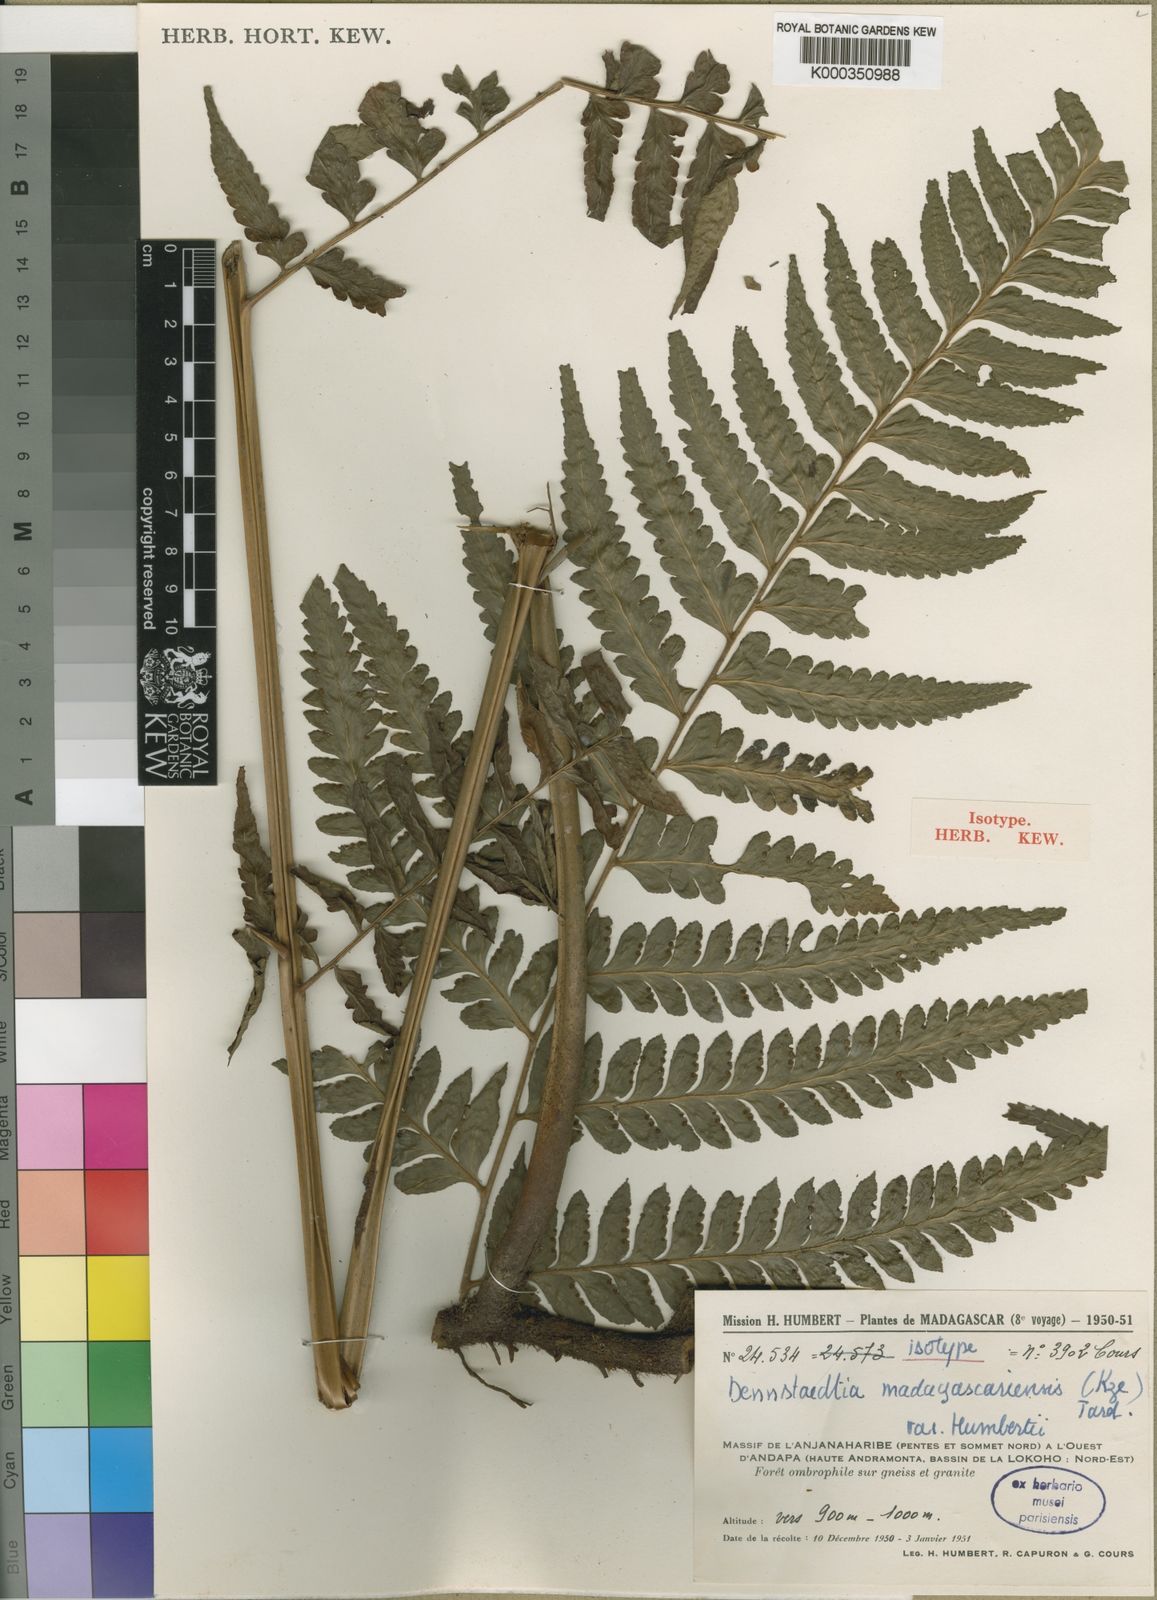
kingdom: Plantae
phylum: Tracheophyta
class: Polypodiopsida
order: Polypodiales
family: Dennstaedtiaceae
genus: Dennstaedtia
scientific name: Dennstaedtia madagascariensis
